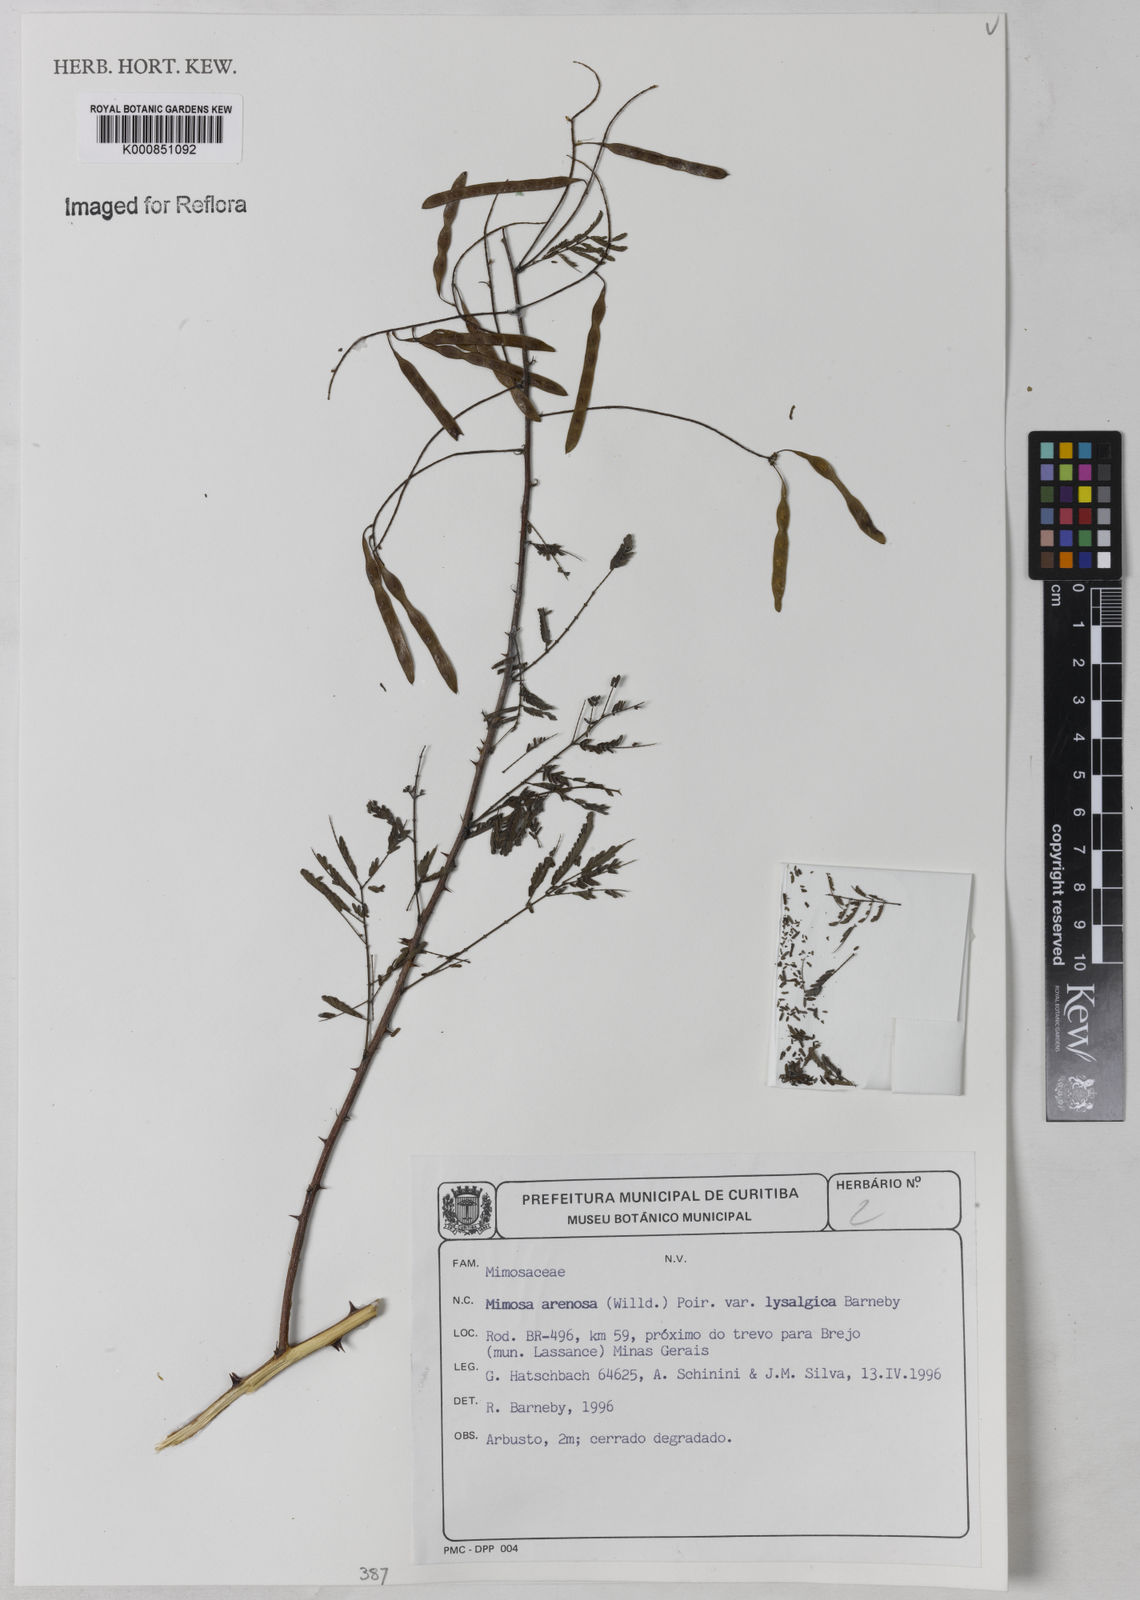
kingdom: Plantae
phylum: Tracheophyta
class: Magnoliopsida
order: Fabales
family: Fabaceae
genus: Mimosa
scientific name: Mimosa arenosa
